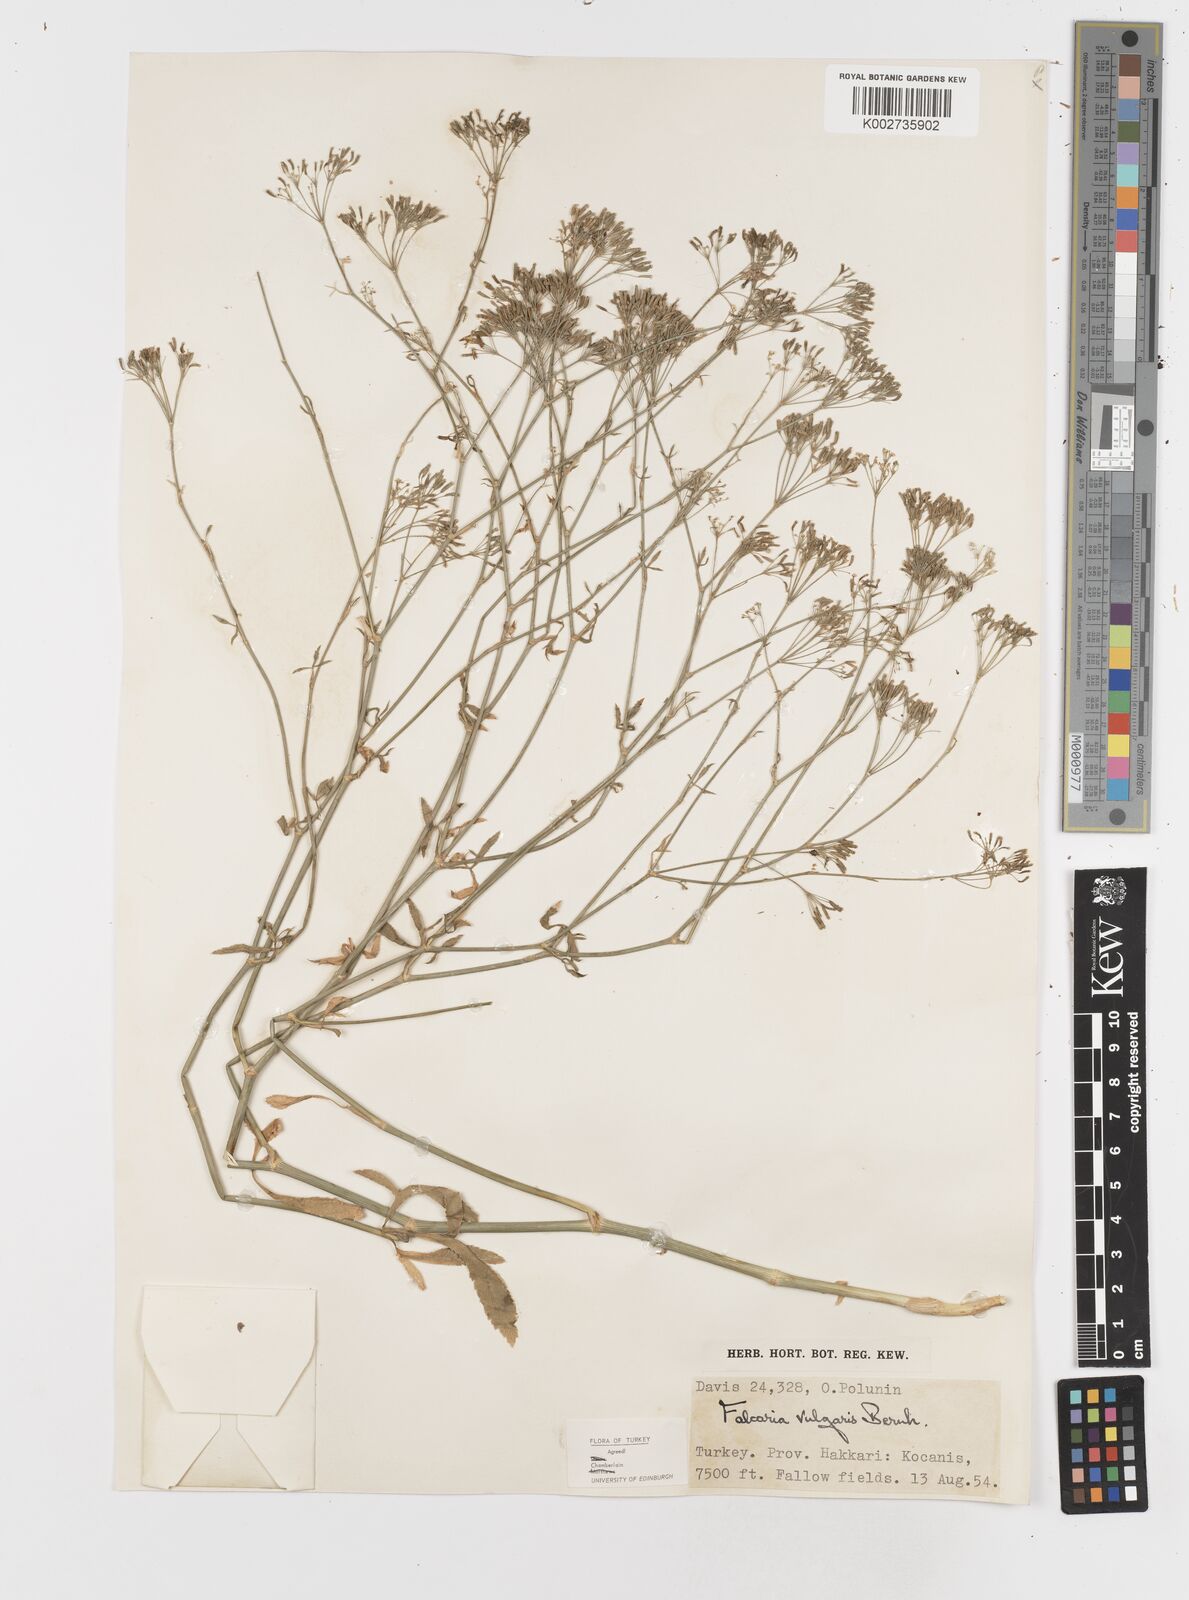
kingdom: Plantae
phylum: Tracheophyta
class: Magnoliopsida
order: Apiales
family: Apiaceae
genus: Falcaria
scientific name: Falcaria vulgaris
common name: Longleaf
